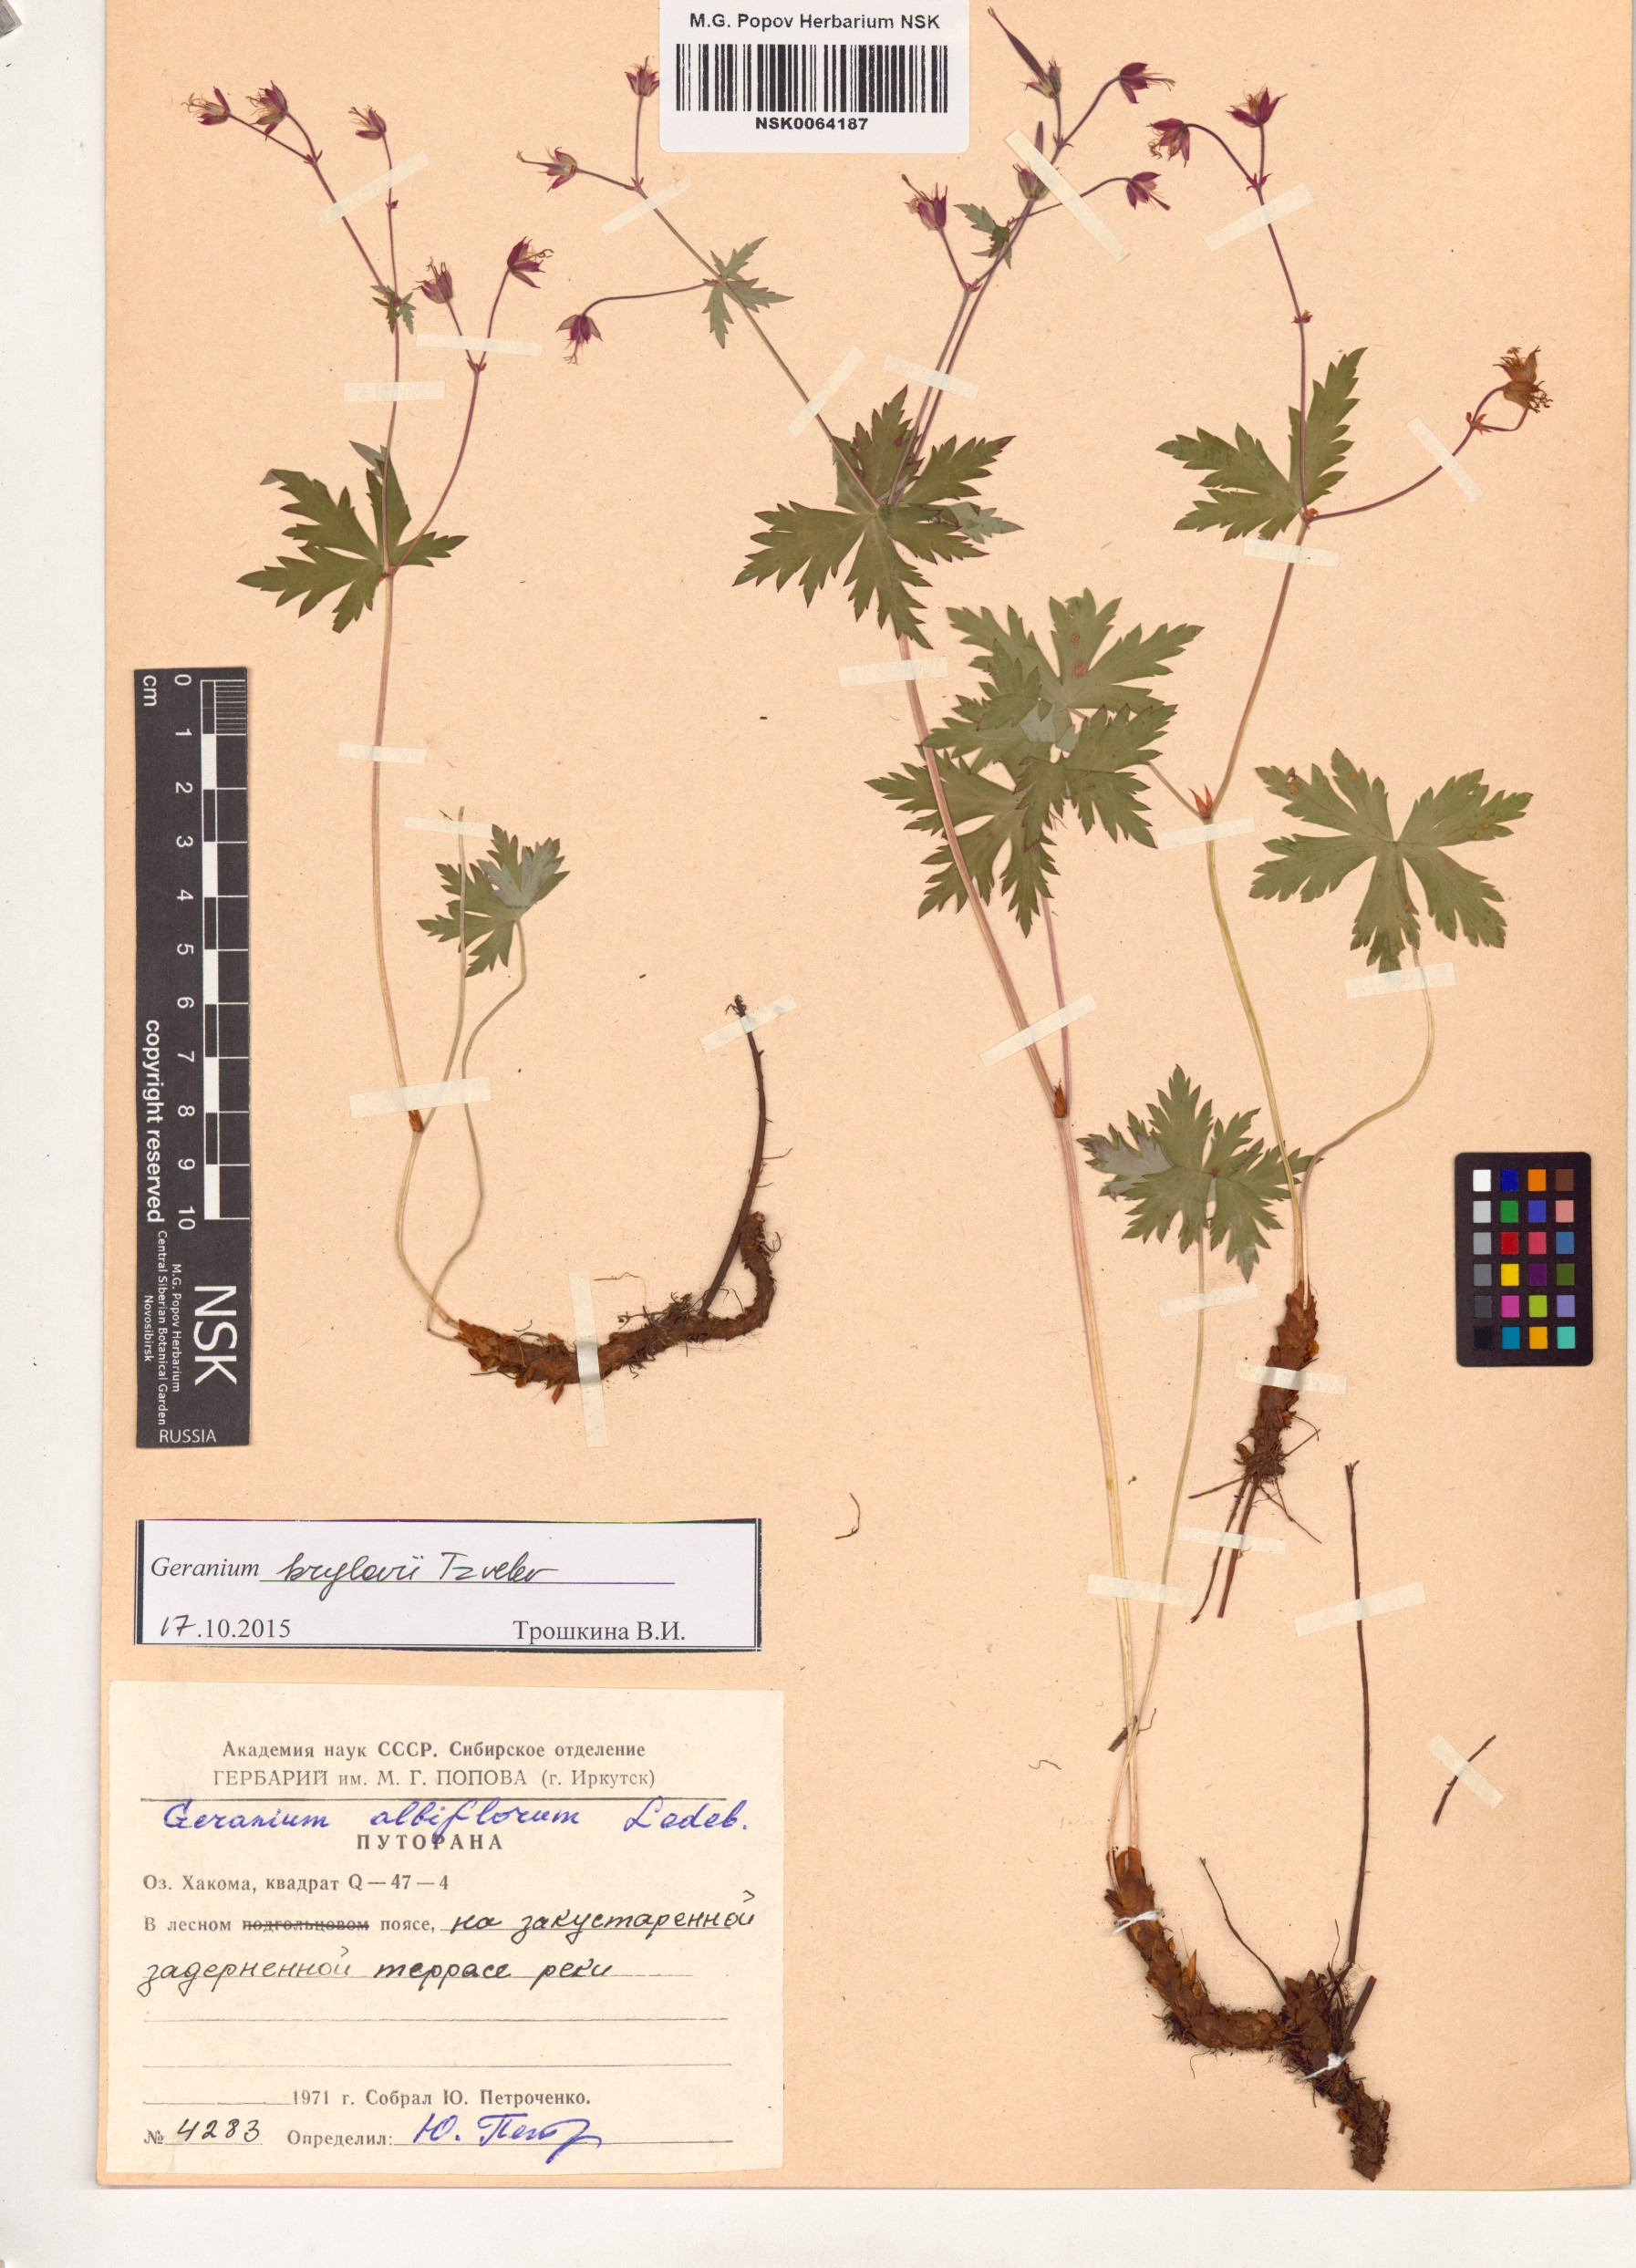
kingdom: Plantae
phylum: Tracheophyta
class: Magnoliopsida
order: Geraniales
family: Geraniaceae
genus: Geranium
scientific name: Geranium sylvaticum
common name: Wood crane's-bill
